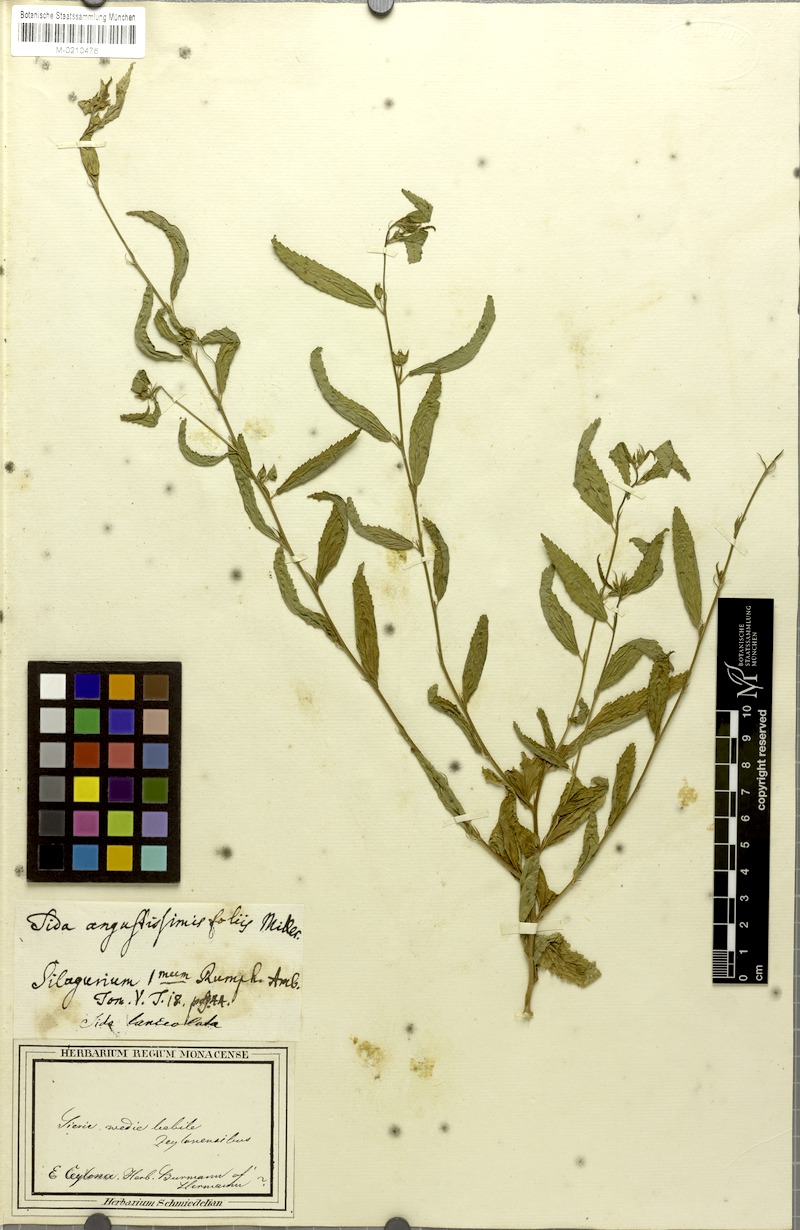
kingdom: Plantae
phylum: Tracheophyta
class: Magnoliopsida
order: Malvales
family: Malvaceae
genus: Sida
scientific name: Sida acuta
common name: Common wireweed
